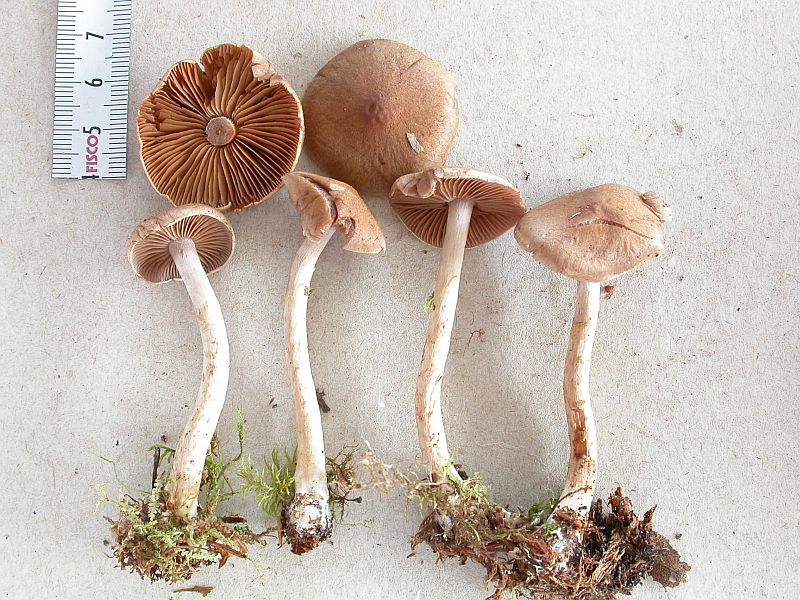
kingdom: Fungi
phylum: Basidiomycota
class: Agaricomycetes
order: Agaricales
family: Cortinariaceae
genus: Cortinarius
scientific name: Cortinarius anomalus
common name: Variable webcap
